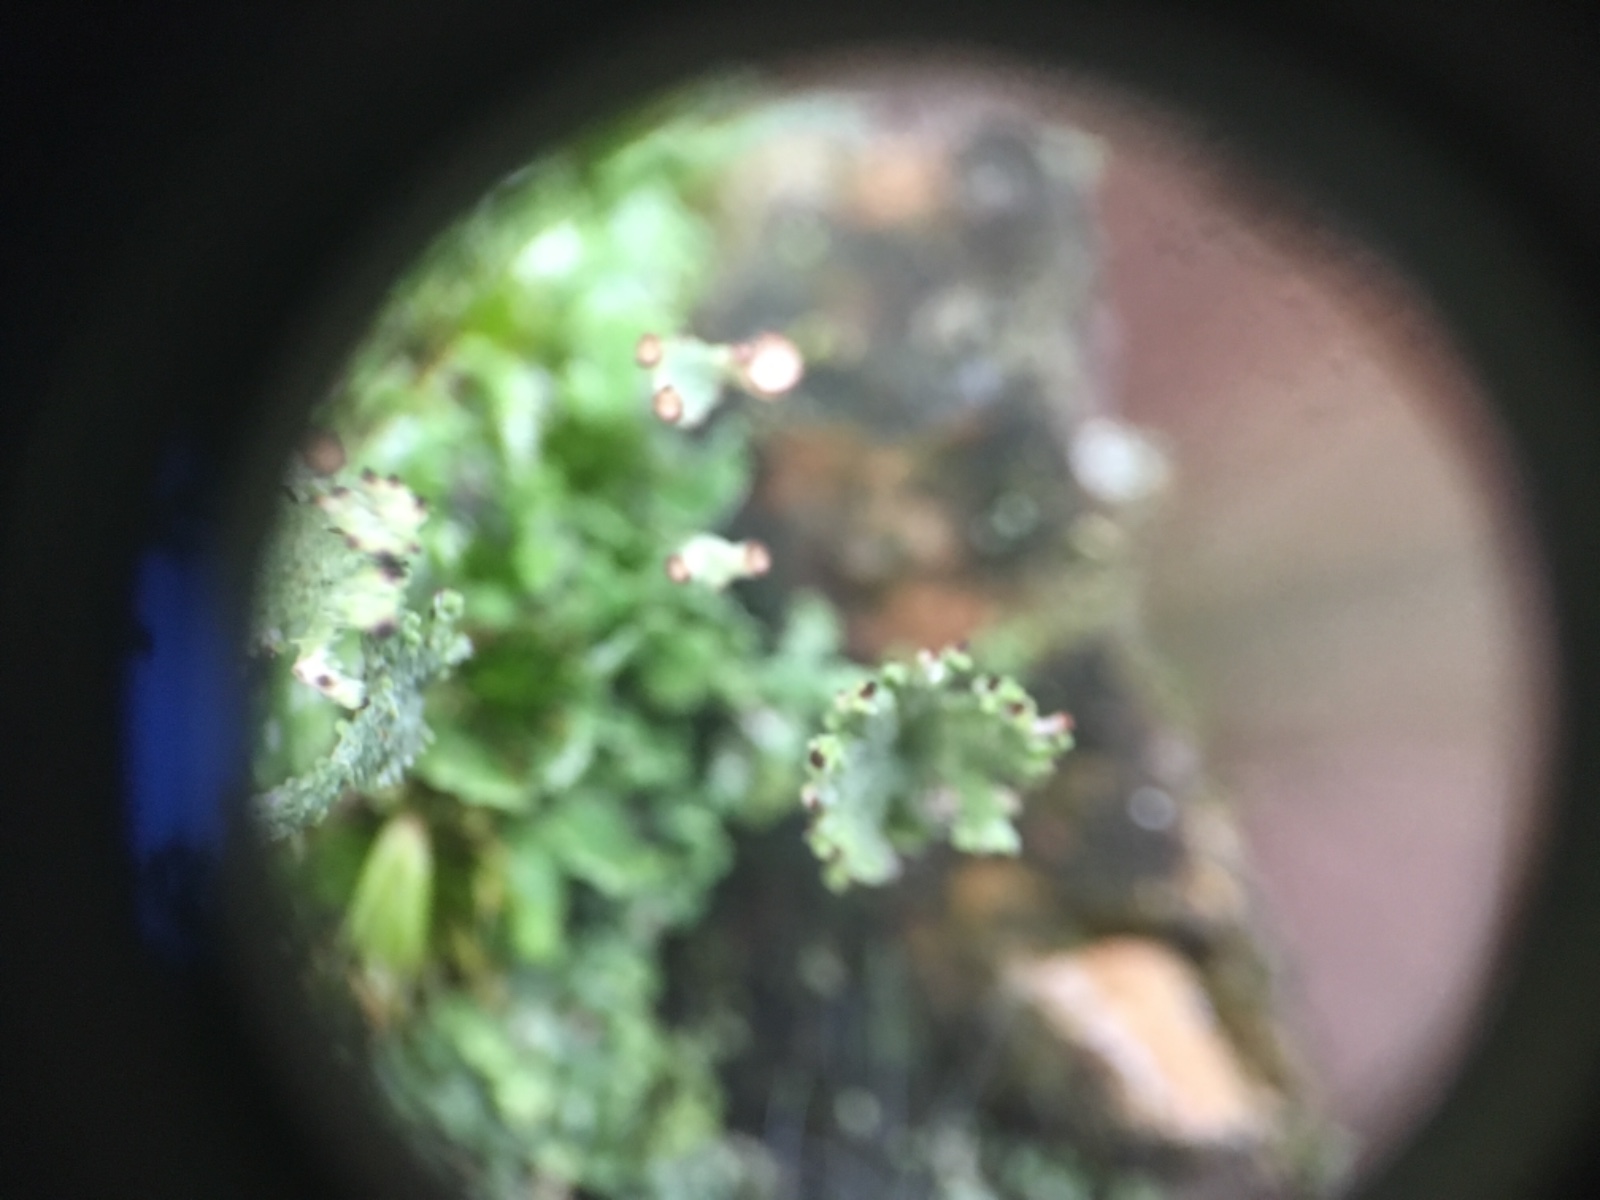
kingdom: Fungi
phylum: Ascomycota
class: Lecanoromycetes
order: Lecanorales
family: Cladoniaceae
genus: Cladonia
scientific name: Cladonia ramulosa
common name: kliddet bægerlav
